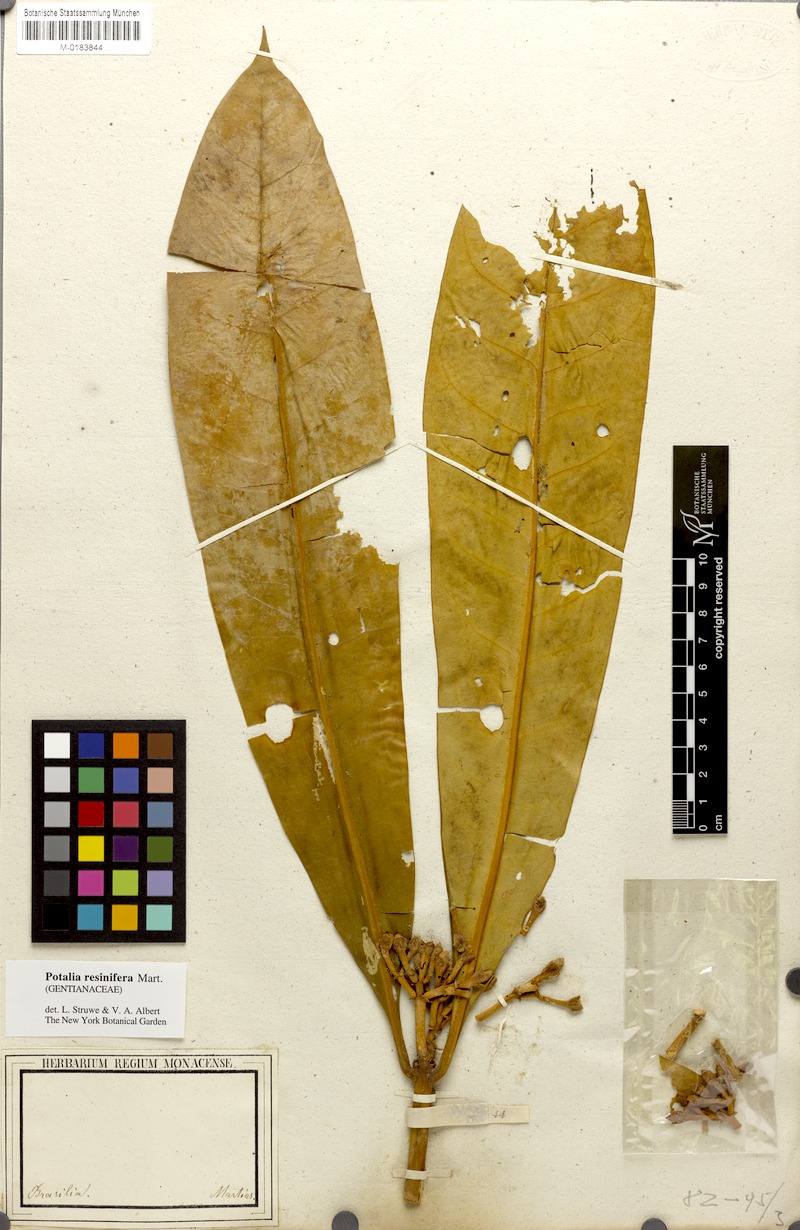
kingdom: Plantae
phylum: Tracheophyta
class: Magnoliopsida
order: Gentianales
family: Gentianaceae
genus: Potalia
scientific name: Potalia resinifera
